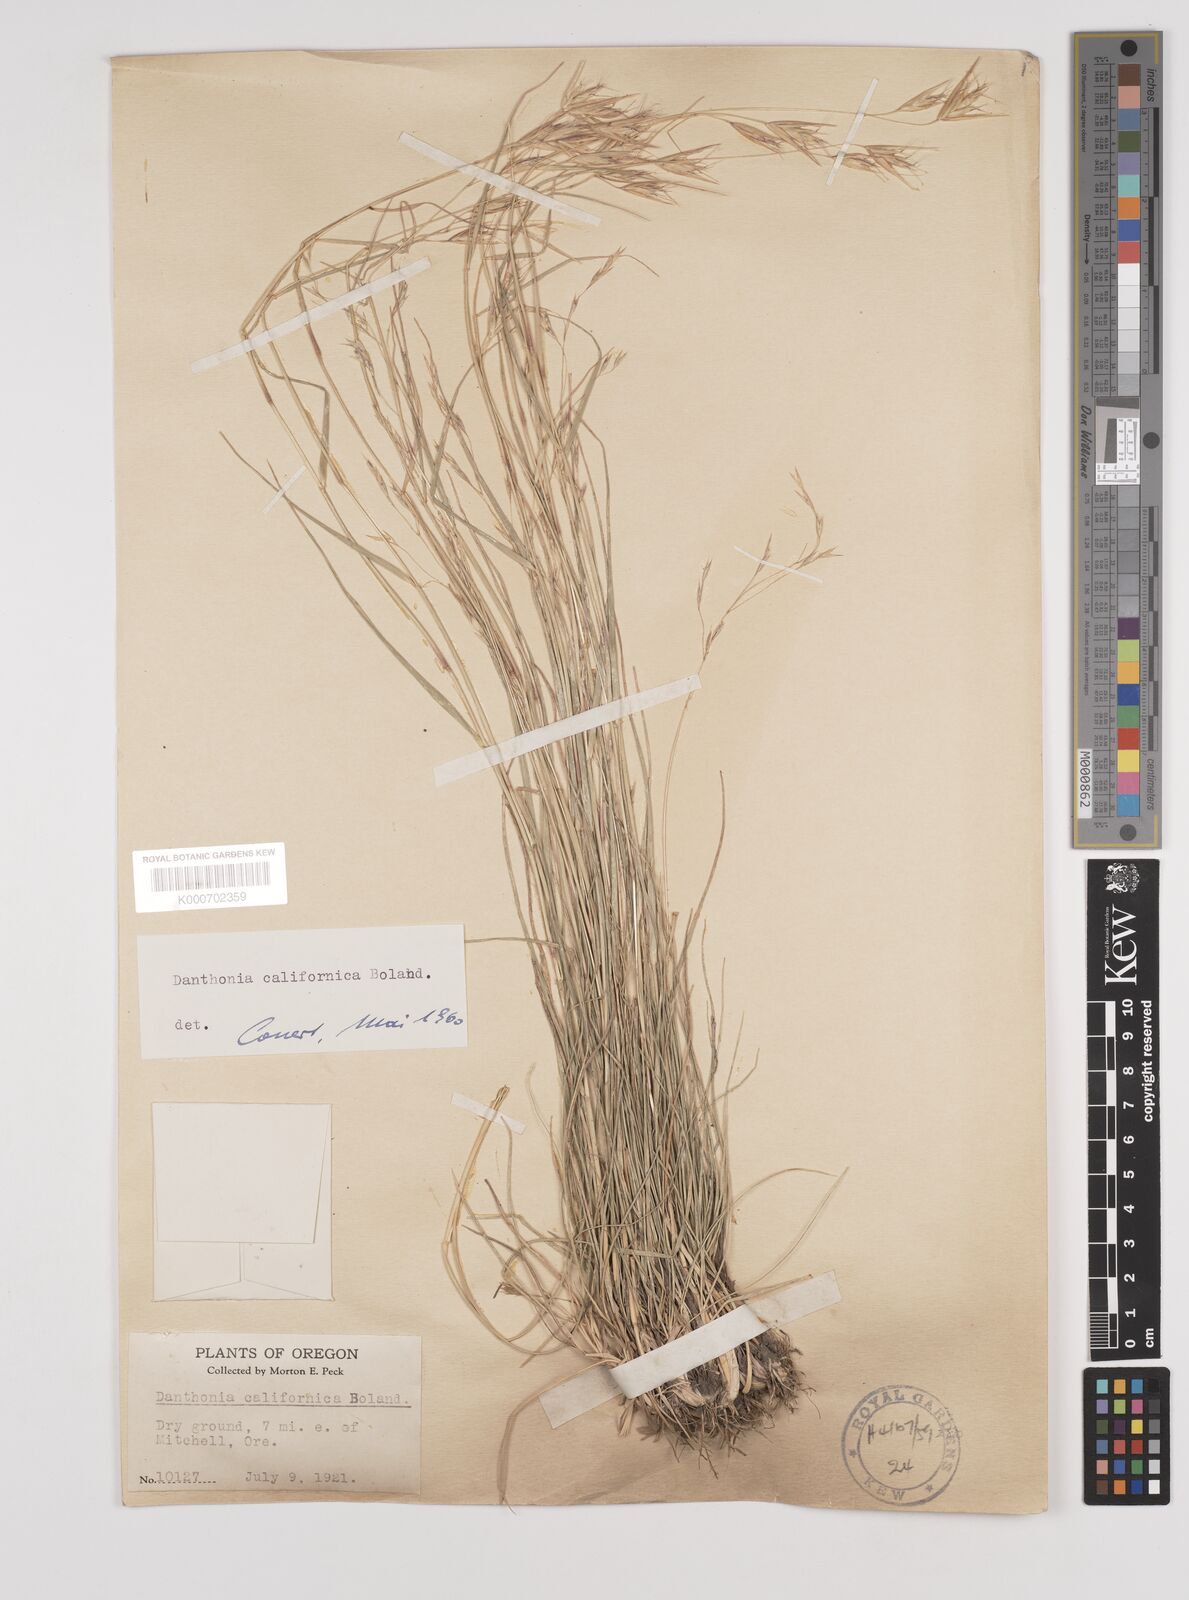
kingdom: Plantae
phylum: Tracheophyta
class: Liliopsida
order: Poales
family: Poaceae
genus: Danthonia
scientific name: Danthonia californica
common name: California oat grass
